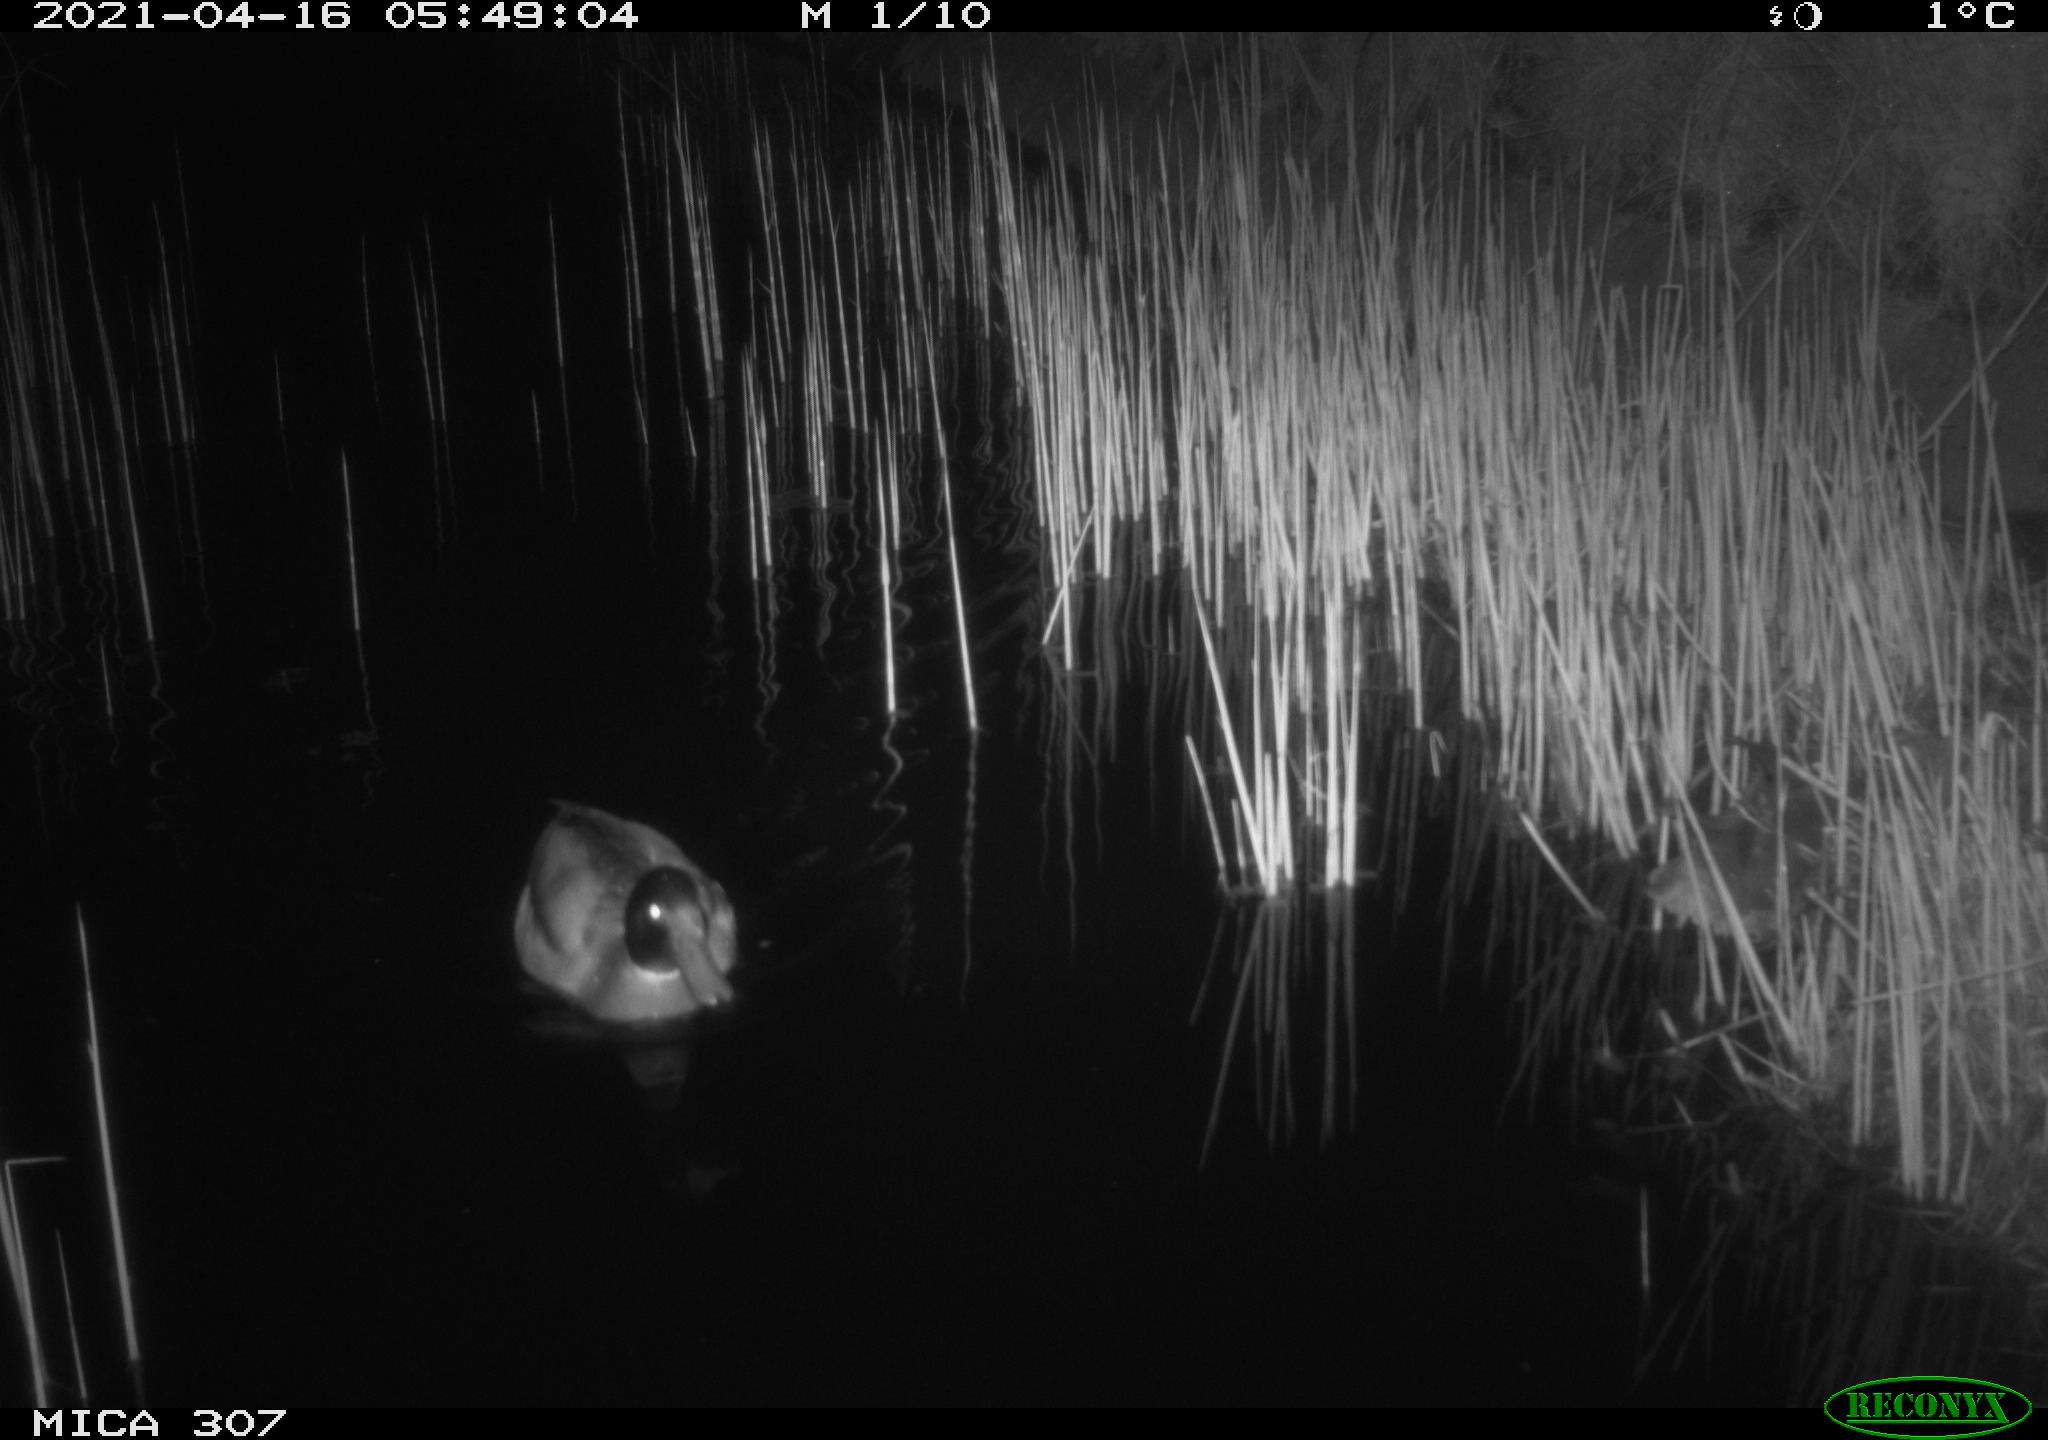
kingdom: Animalia
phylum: Chordata
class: Aves
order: Gruiformes
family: Rallidae
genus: Fulica
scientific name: Fulica atra
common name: Eurasian coot
